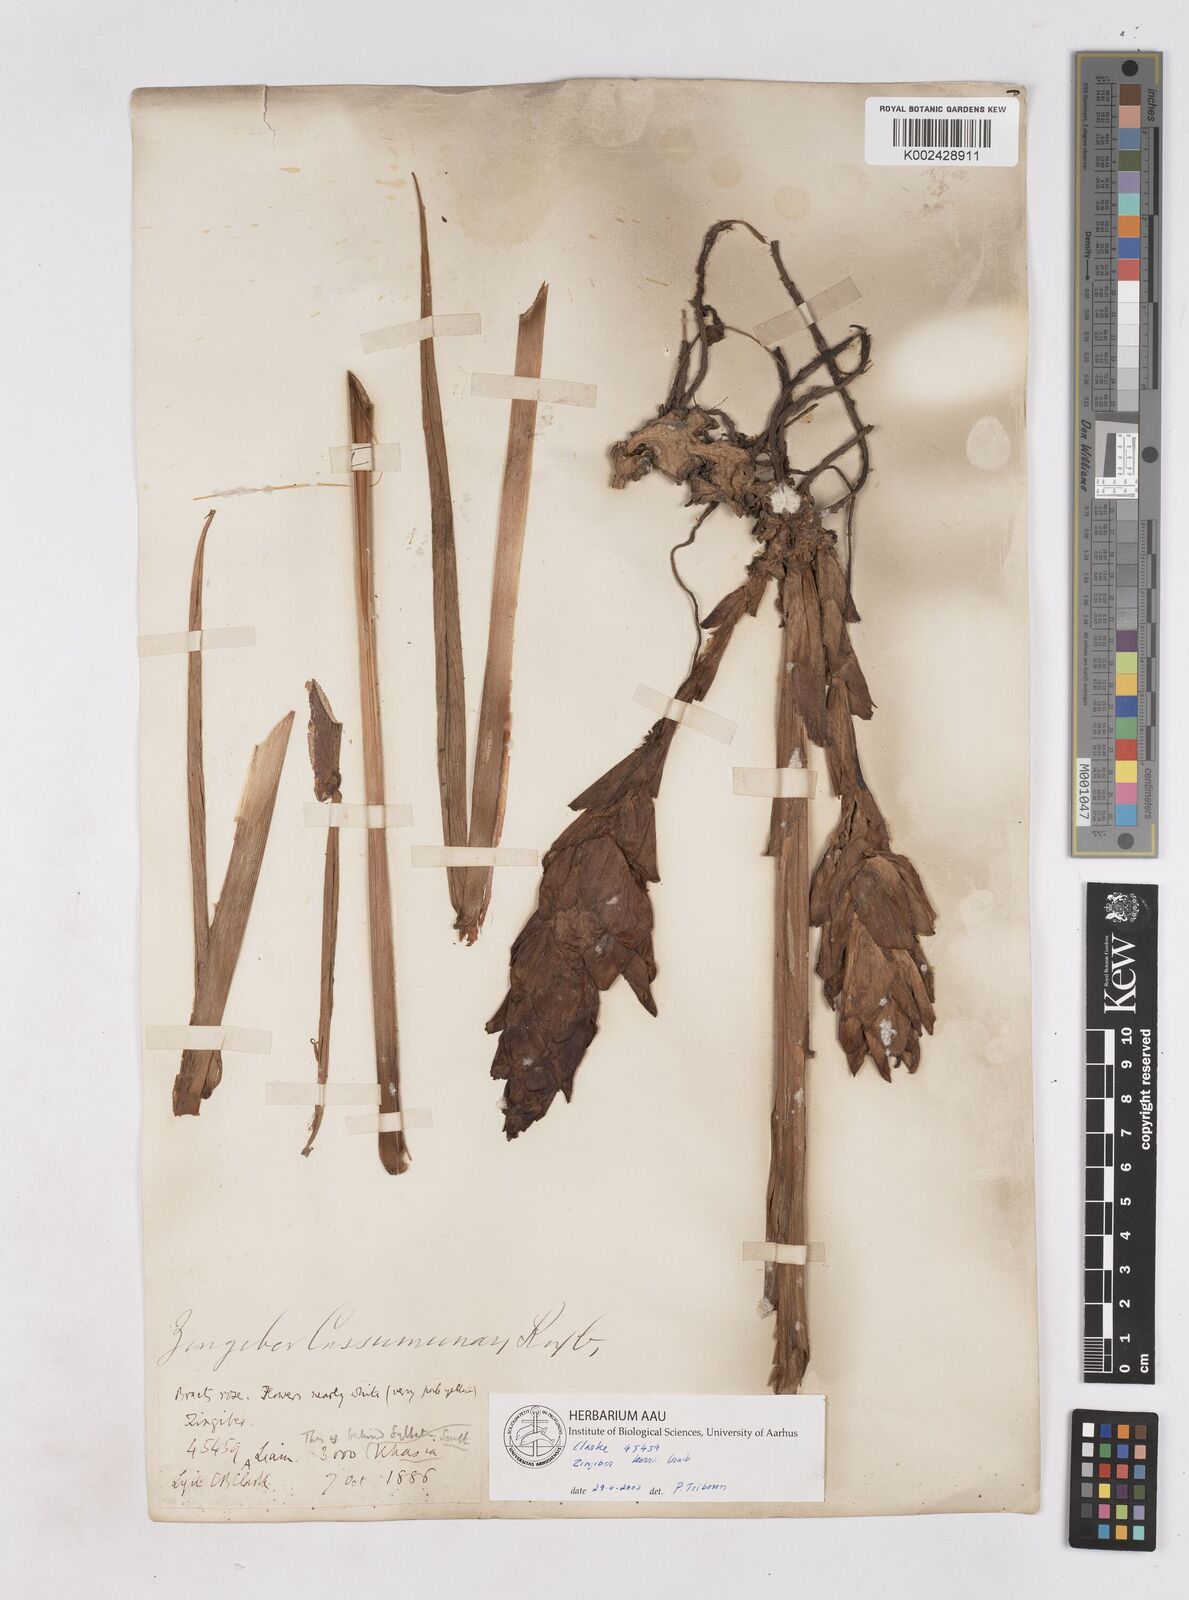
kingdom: Plantae
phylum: Tracheophyta
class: Liliopsida
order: Zingiberales
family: Zingiberaceae
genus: Zingiber
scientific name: Zingiber kerrii
